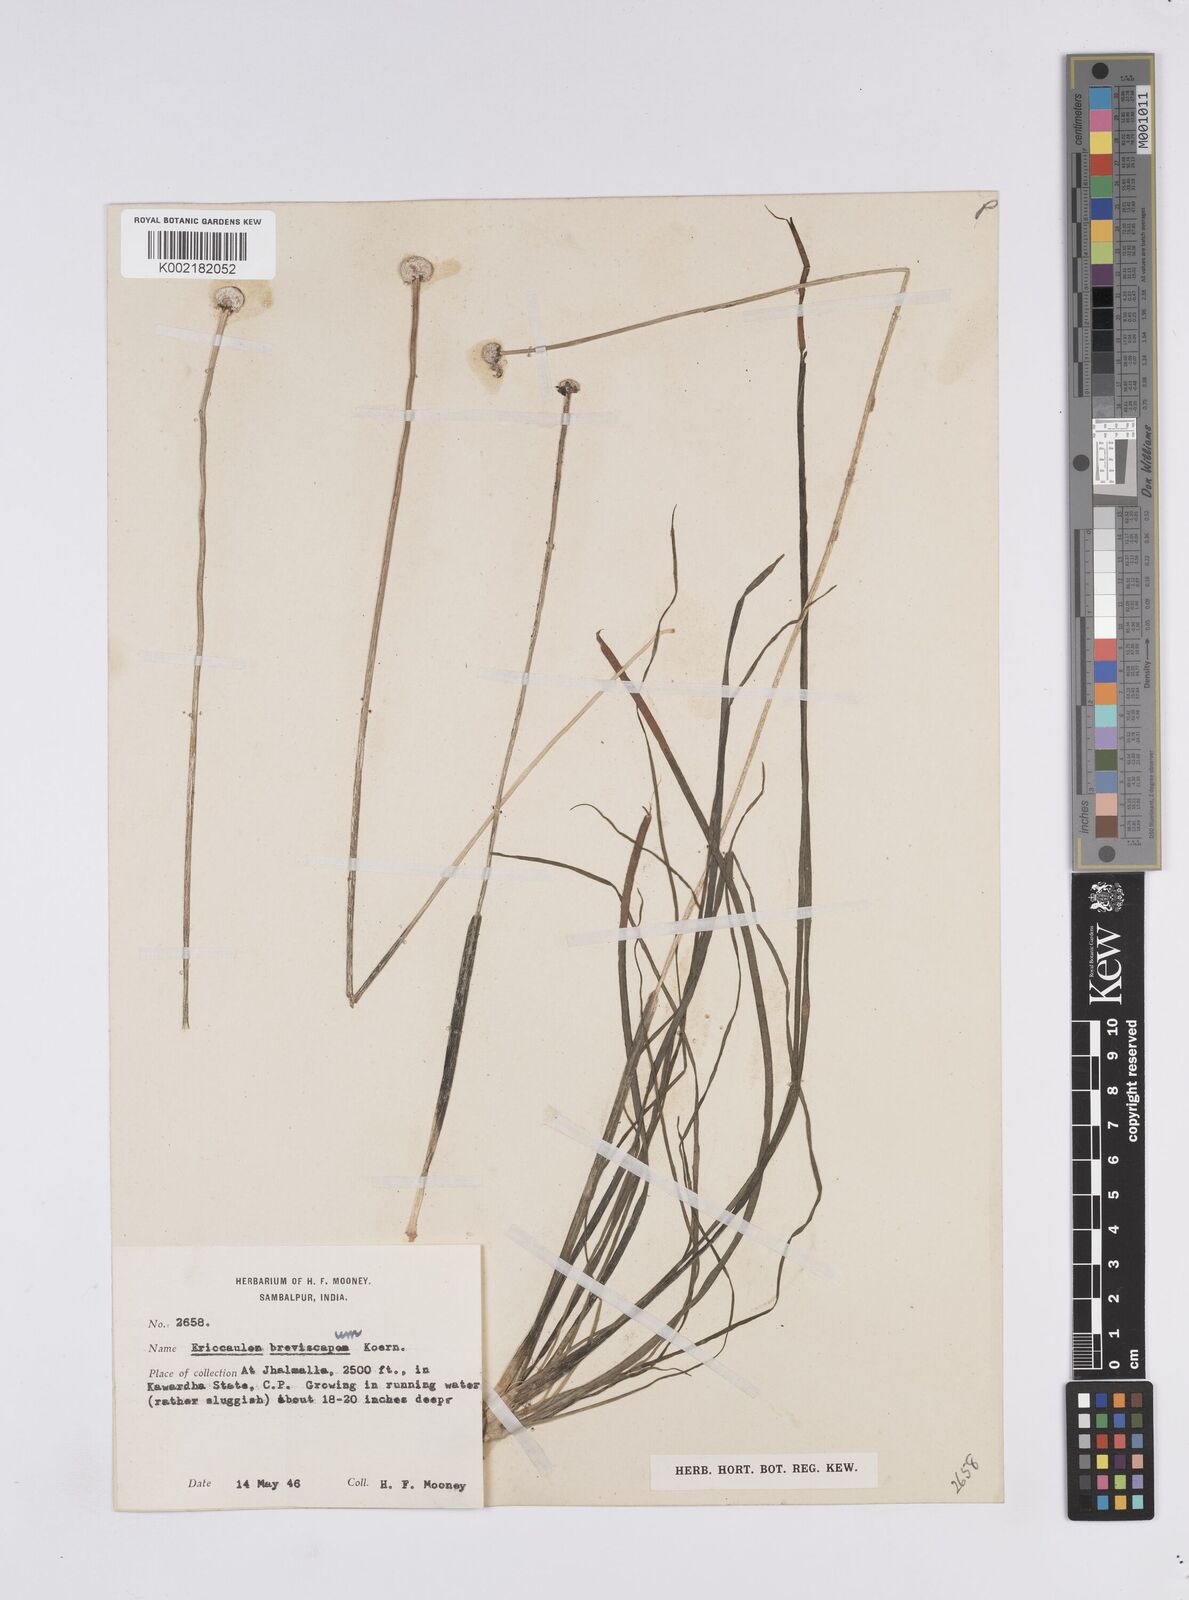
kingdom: Plantae
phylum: Tracheophyta
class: Liliopsida
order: Poales
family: Eriocaulaceae
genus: Eriocaulon
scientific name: Eriocaulon breviscapum
